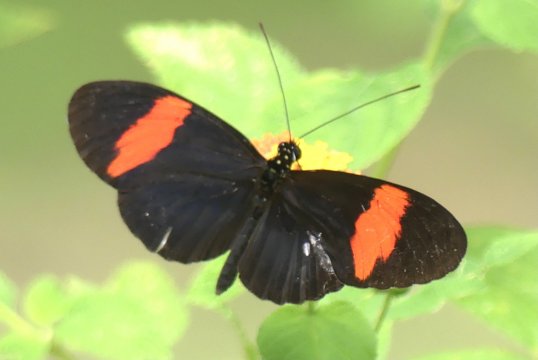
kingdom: Animalia
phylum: Arthropoda
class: Insecta
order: Lepidoptera
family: Nymphalidae
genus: Heliconius
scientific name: Heliconius erato
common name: Erato Heliconian
